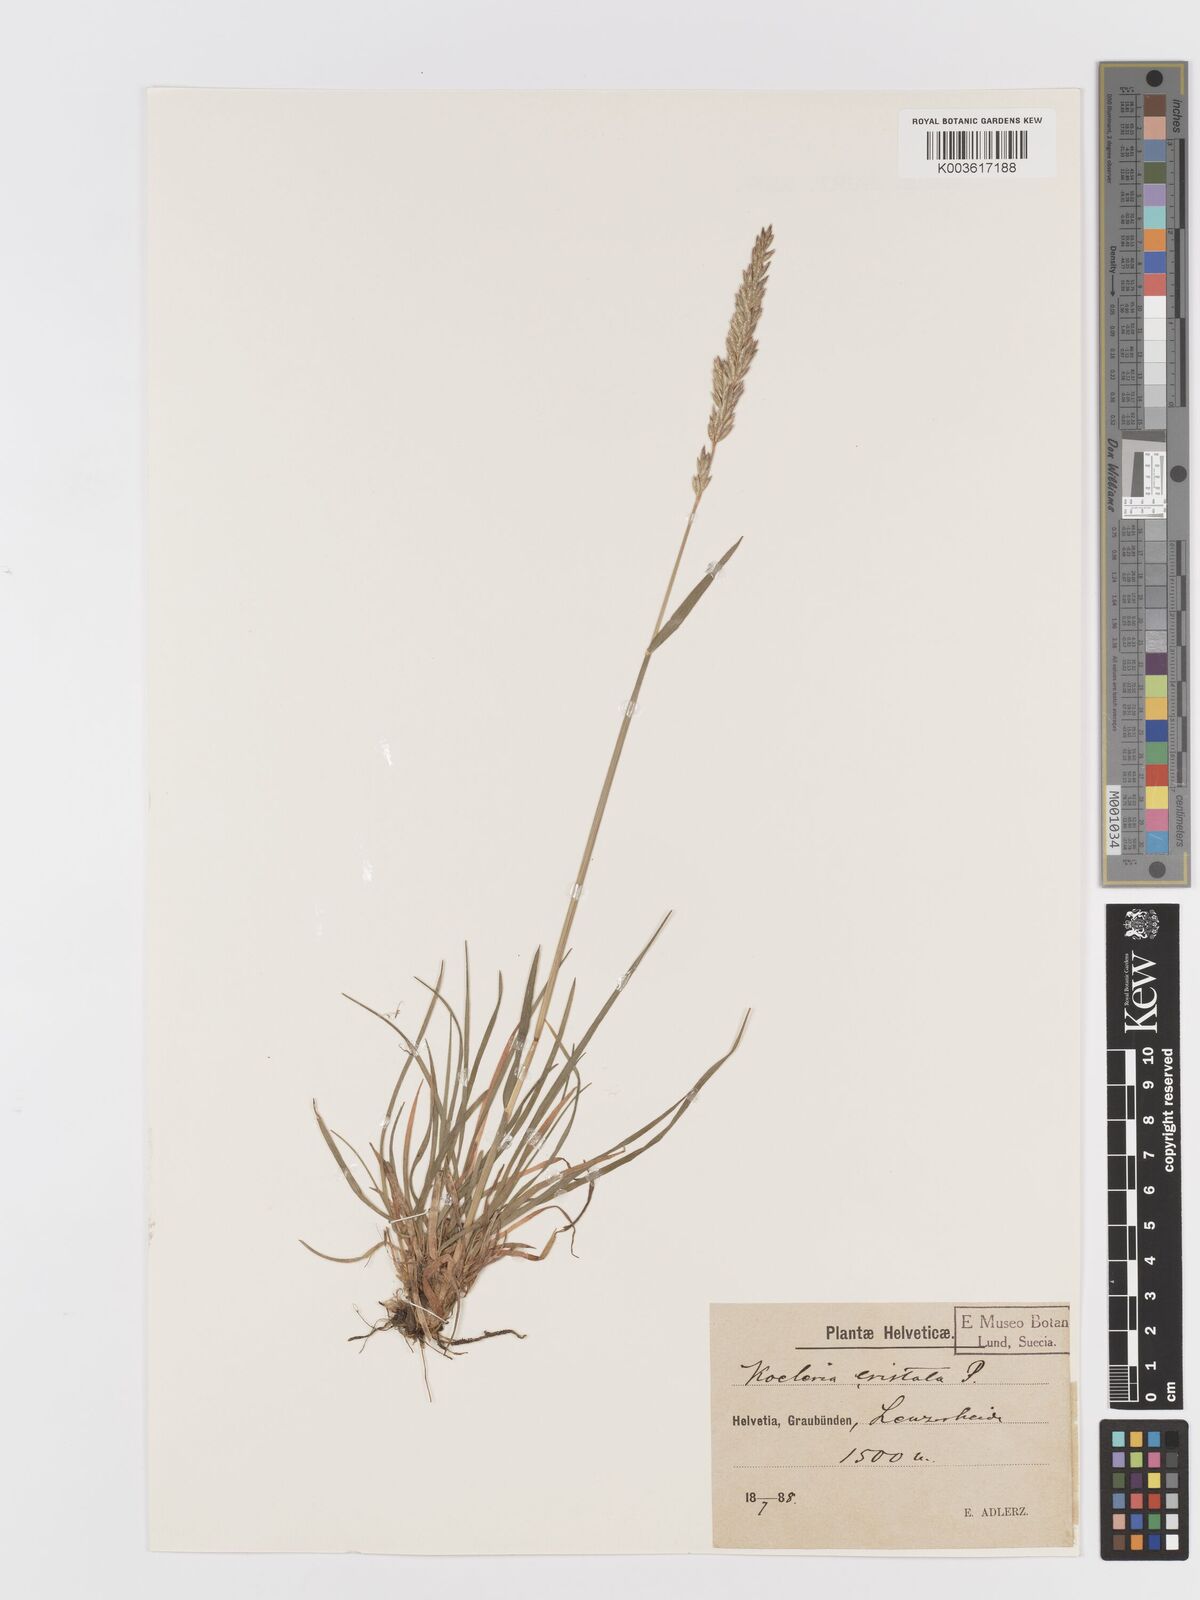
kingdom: Plantae
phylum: Tracheophyta
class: Liliopsida
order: Poales
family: Poaceae
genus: Koeleria
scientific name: Koeleria
